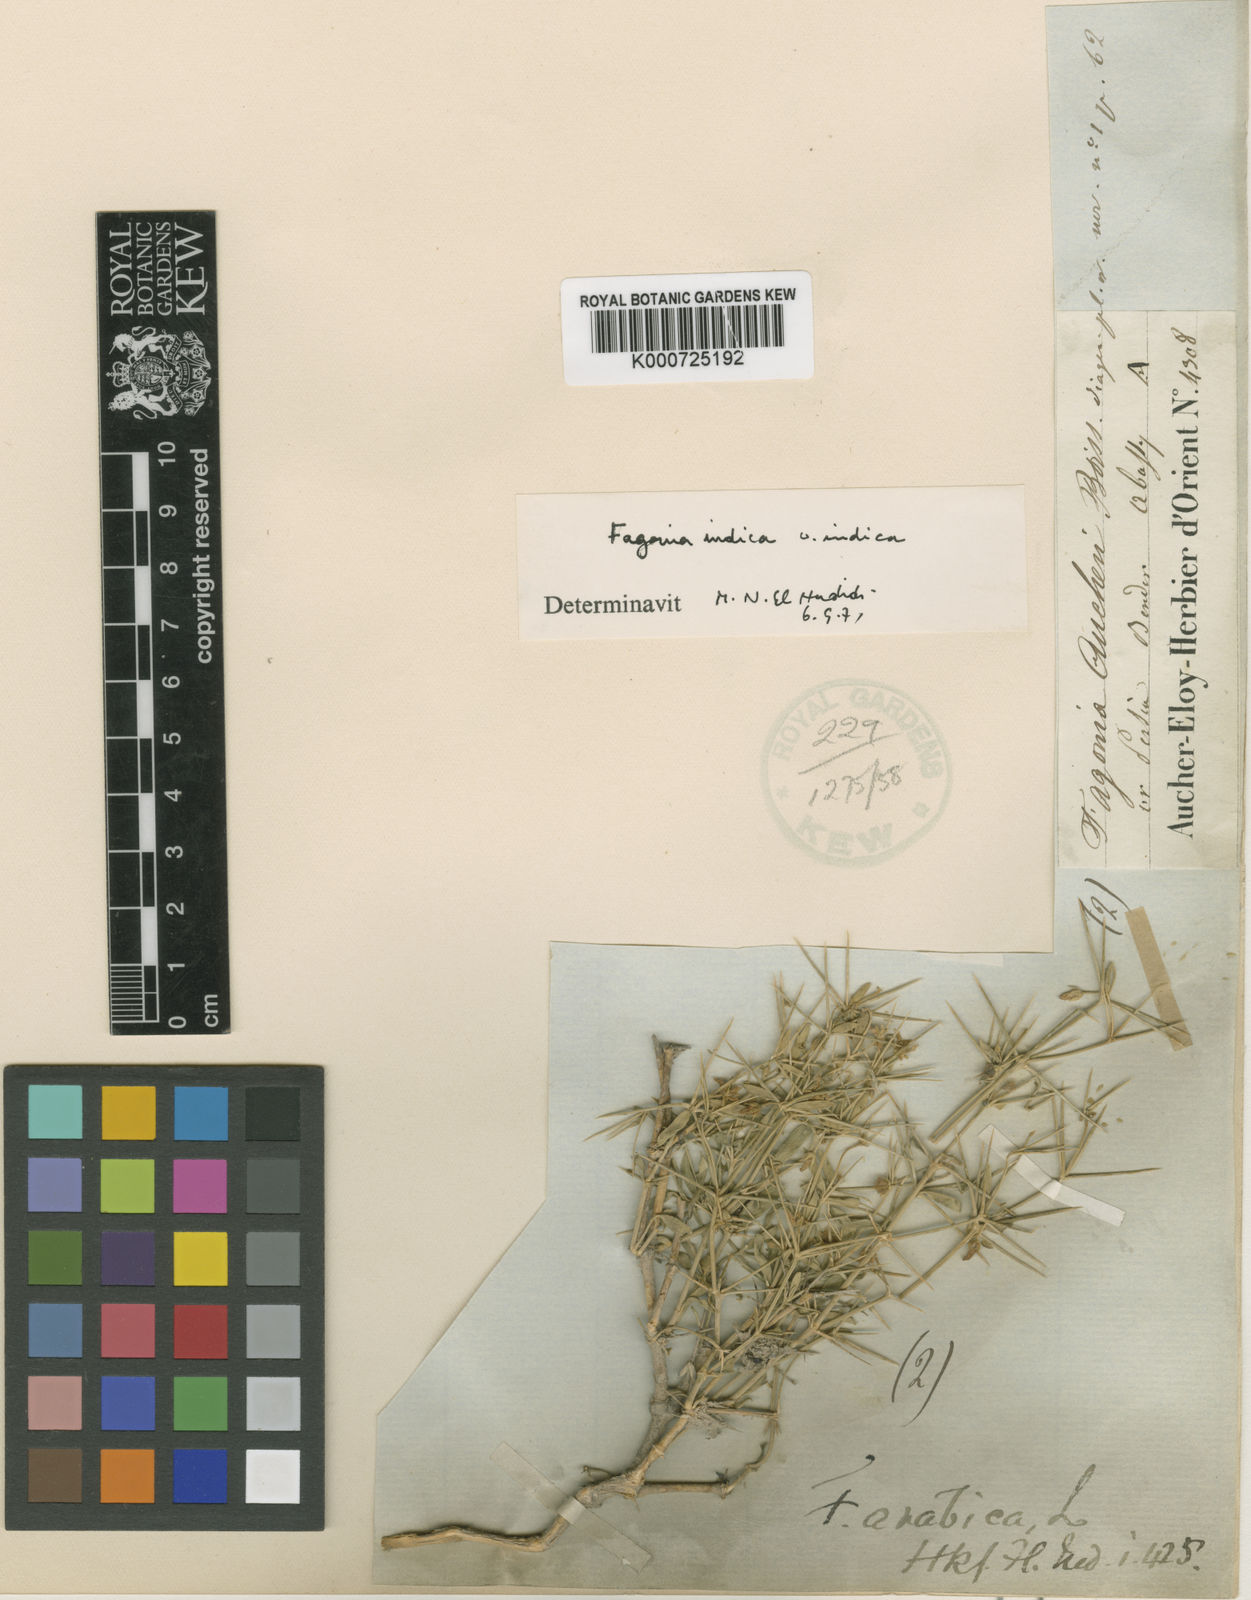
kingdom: Plantae
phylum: Tracheophyta
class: Magnoliopsida
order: Zygophyllales
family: Zygophyllaceae
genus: Fagonia
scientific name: Fagonia indica
